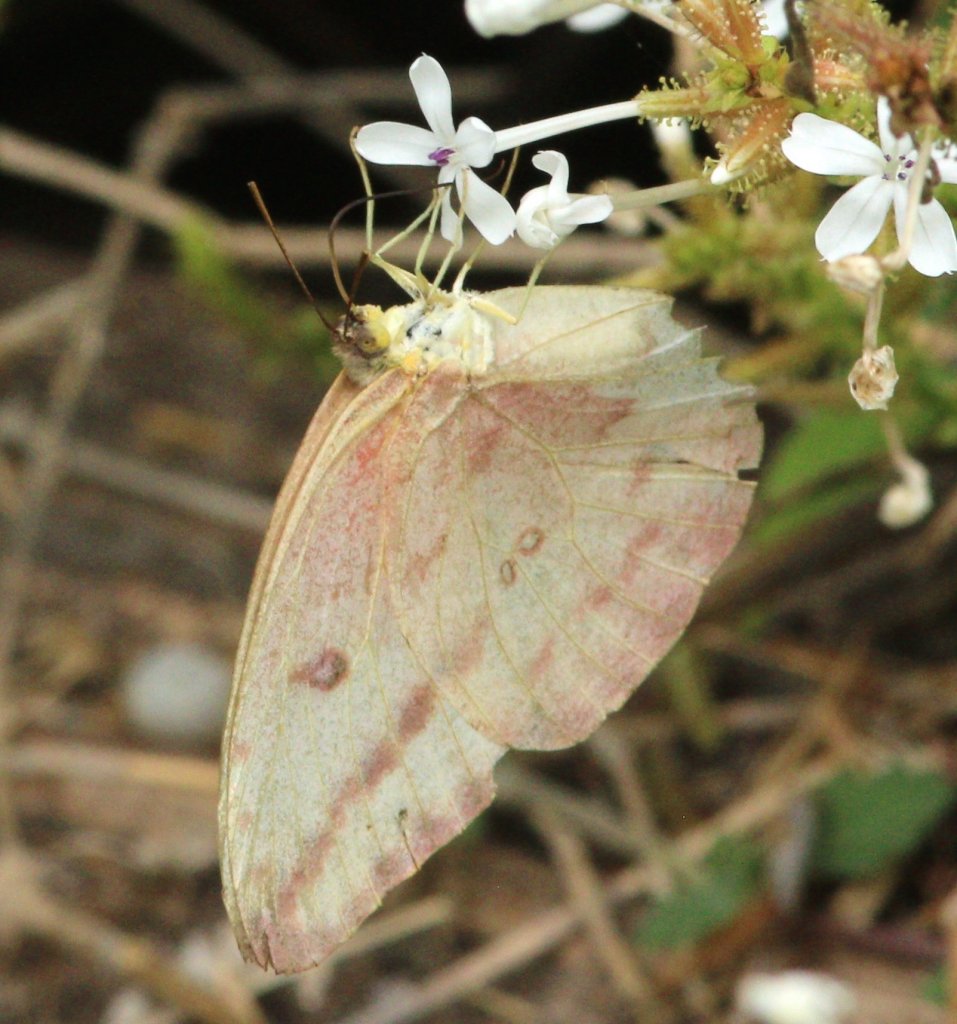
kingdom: Animalia
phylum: Arthropoda
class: Insecta
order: Lepidoptera
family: Pieridae
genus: Phoebis
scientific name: Phoebis agarithe
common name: Large Orange Sulphur
